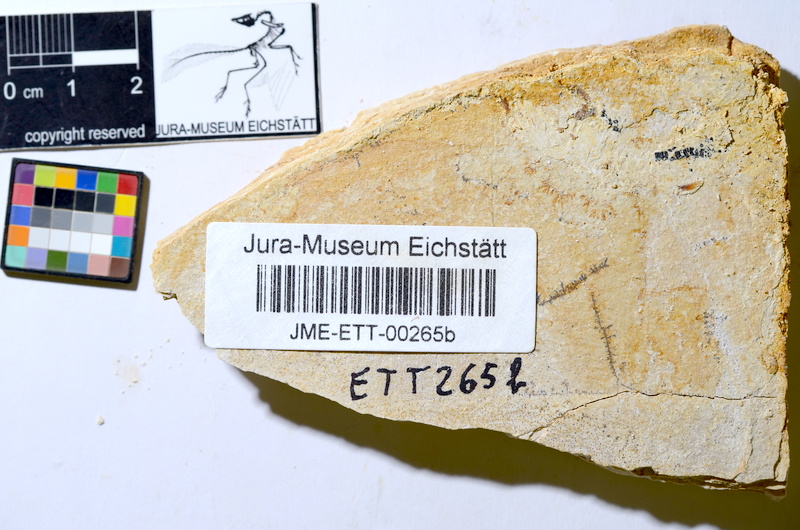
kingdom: Animalia
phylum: Chordata
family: Ascalaboidae
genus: Ebertichthys
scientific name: Ebertichthys ettlingensis
